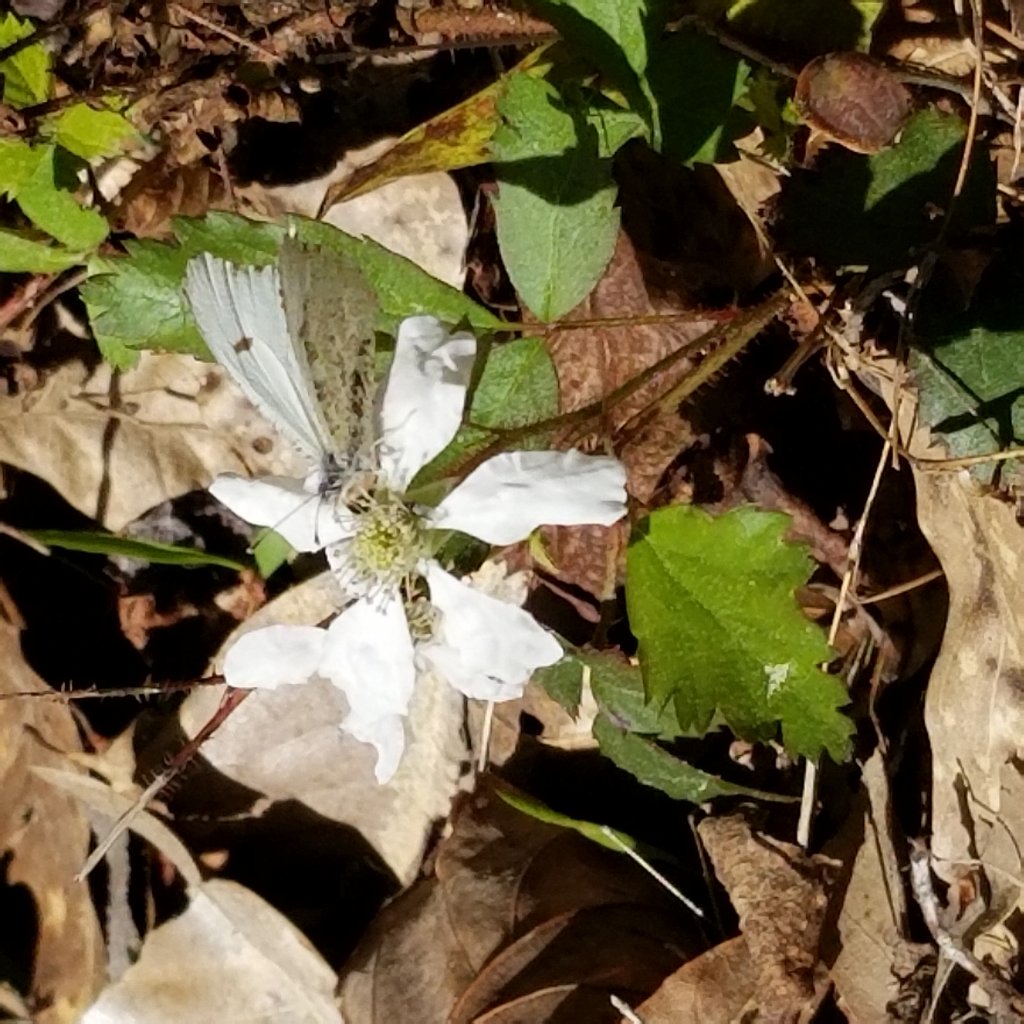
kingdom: Animalia
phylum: Arthropoda
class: Insecta
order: Lepidoptera
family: Pieridae
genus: Anthocharis
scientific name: Anthocharis midea
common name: Falcate Orangetip
